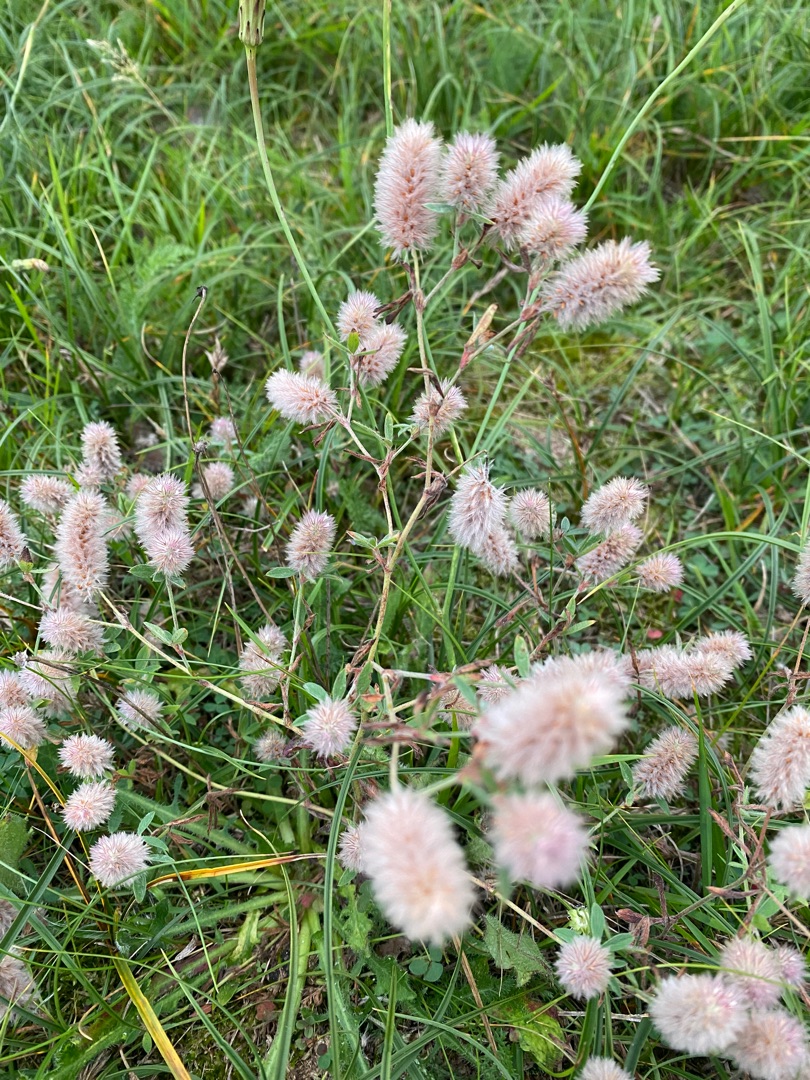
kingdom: Plantae
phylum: Tracheophyta
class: Magnoliopsida
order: Fabales
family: Fabaceae
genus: Trifolium
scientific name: Trifolium arvense
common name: Hare-kløver
